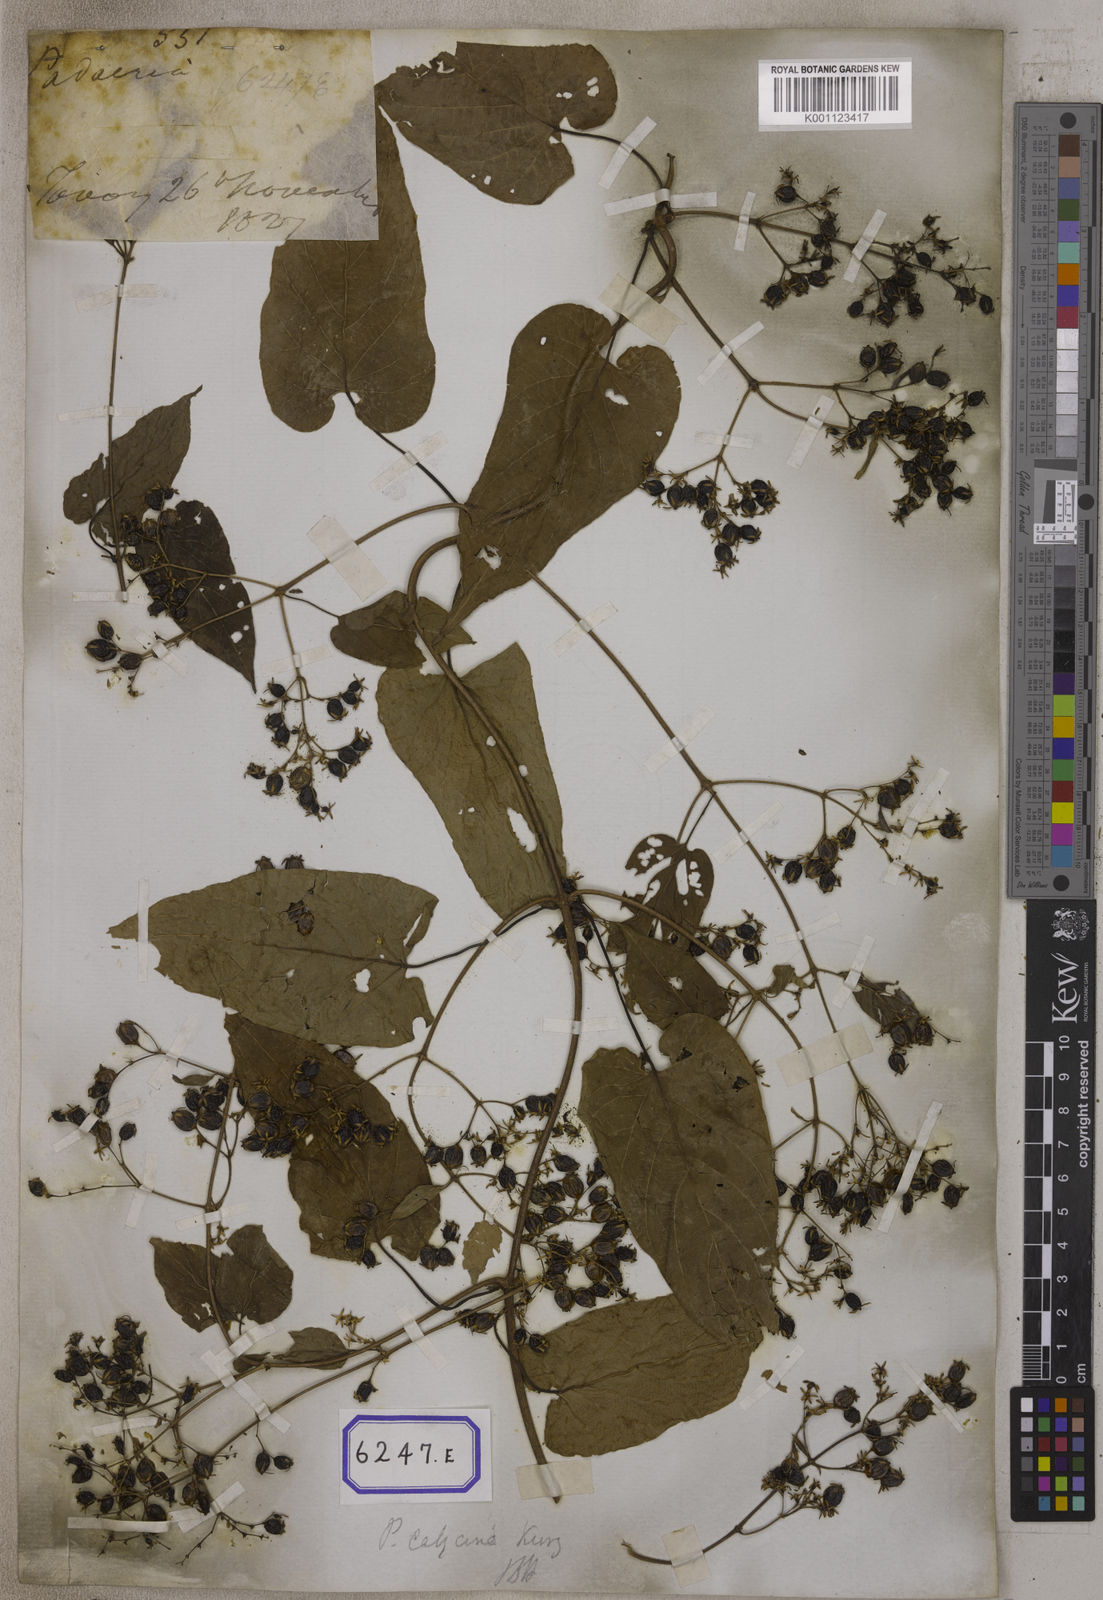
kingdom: Plantae
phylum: Tracheophyta
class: Magnoliopsida
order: Gentianales
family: Rubiaceae
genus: Paederia
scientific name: Paederia
